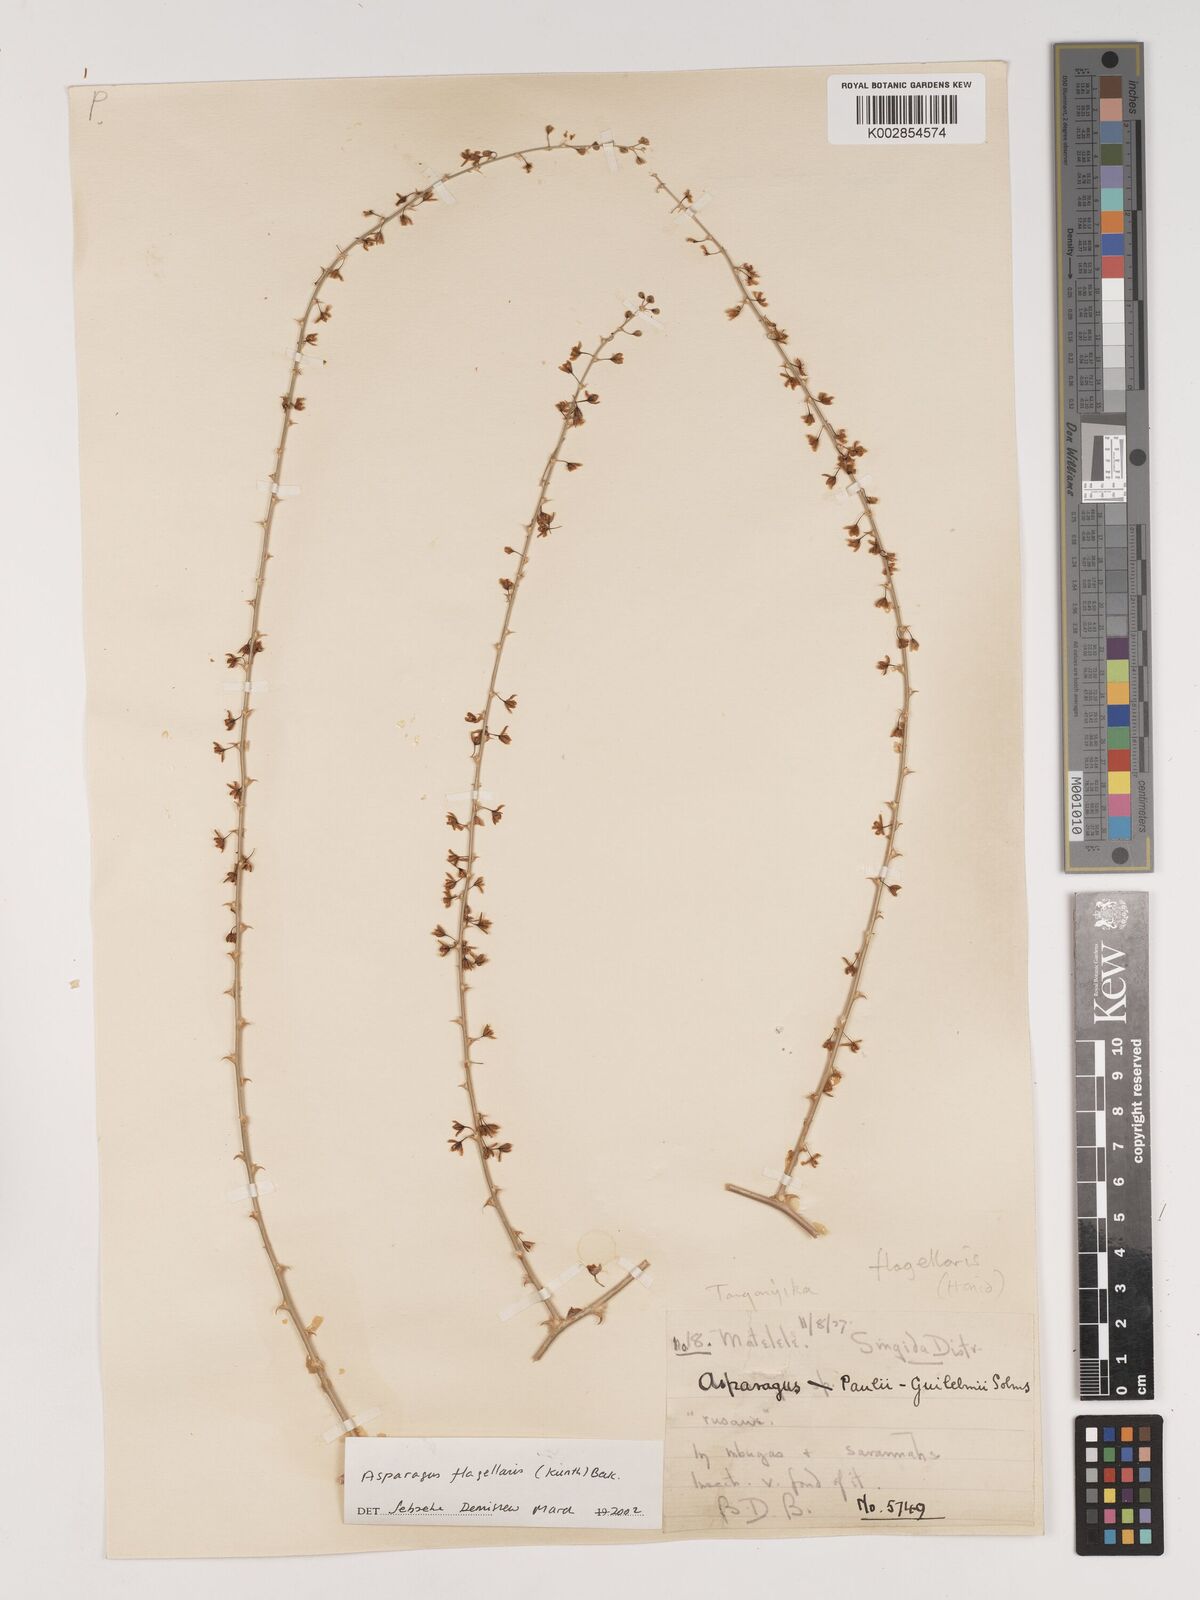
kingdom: Plantae
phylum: Tracheophyta
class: Liliopsida
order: Asparagales
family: Asparagaceae
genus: Asparagus
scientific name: Asparagus flagellaris
